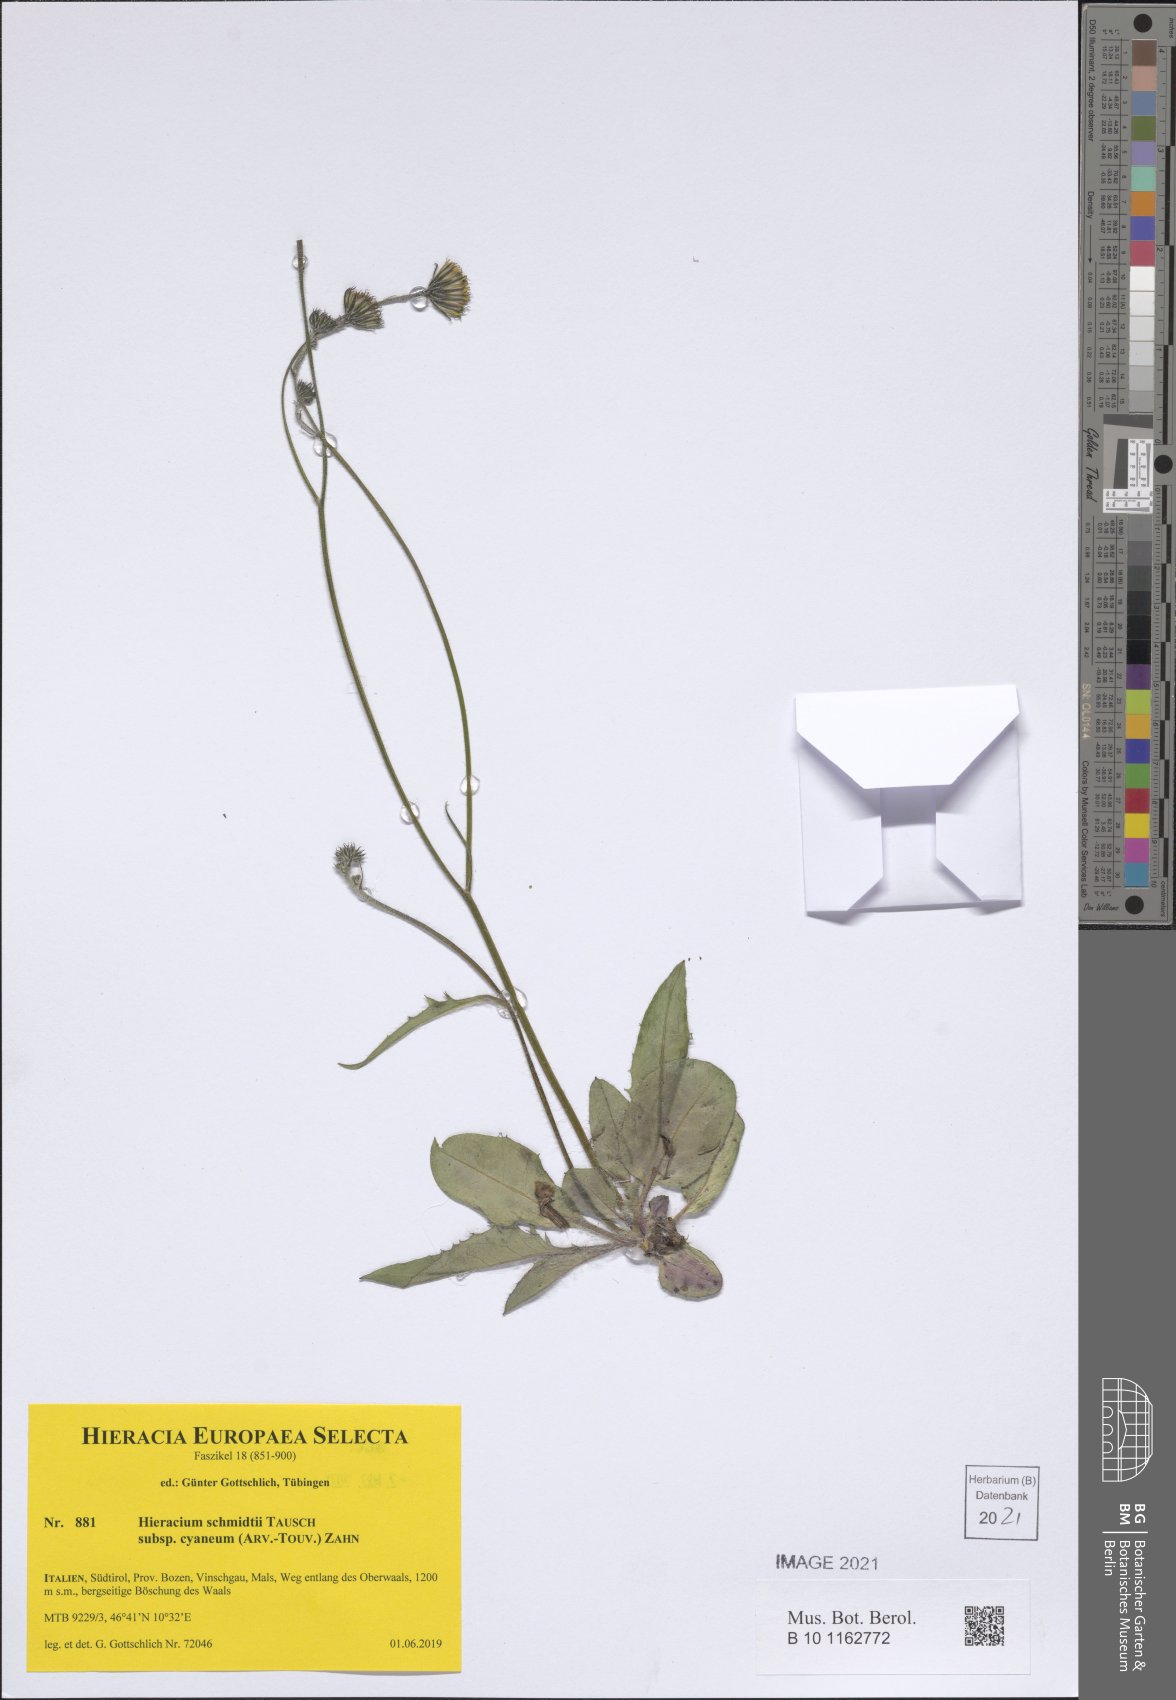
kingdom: Plantae
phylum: Tracheophyta
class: Magnoliopsida
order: Asterales
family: Asteraceae
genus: Hieracium
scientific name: Hieracium schmidtii
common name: Schmidt's hawkweed
